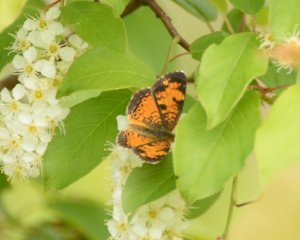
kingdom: Animalia
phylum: Arthropoda
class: Insecta
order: Lepidoptera
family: Nymphalidae
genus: Phyciodes
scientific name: Phyciodes tharos
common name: Northern Crescent
